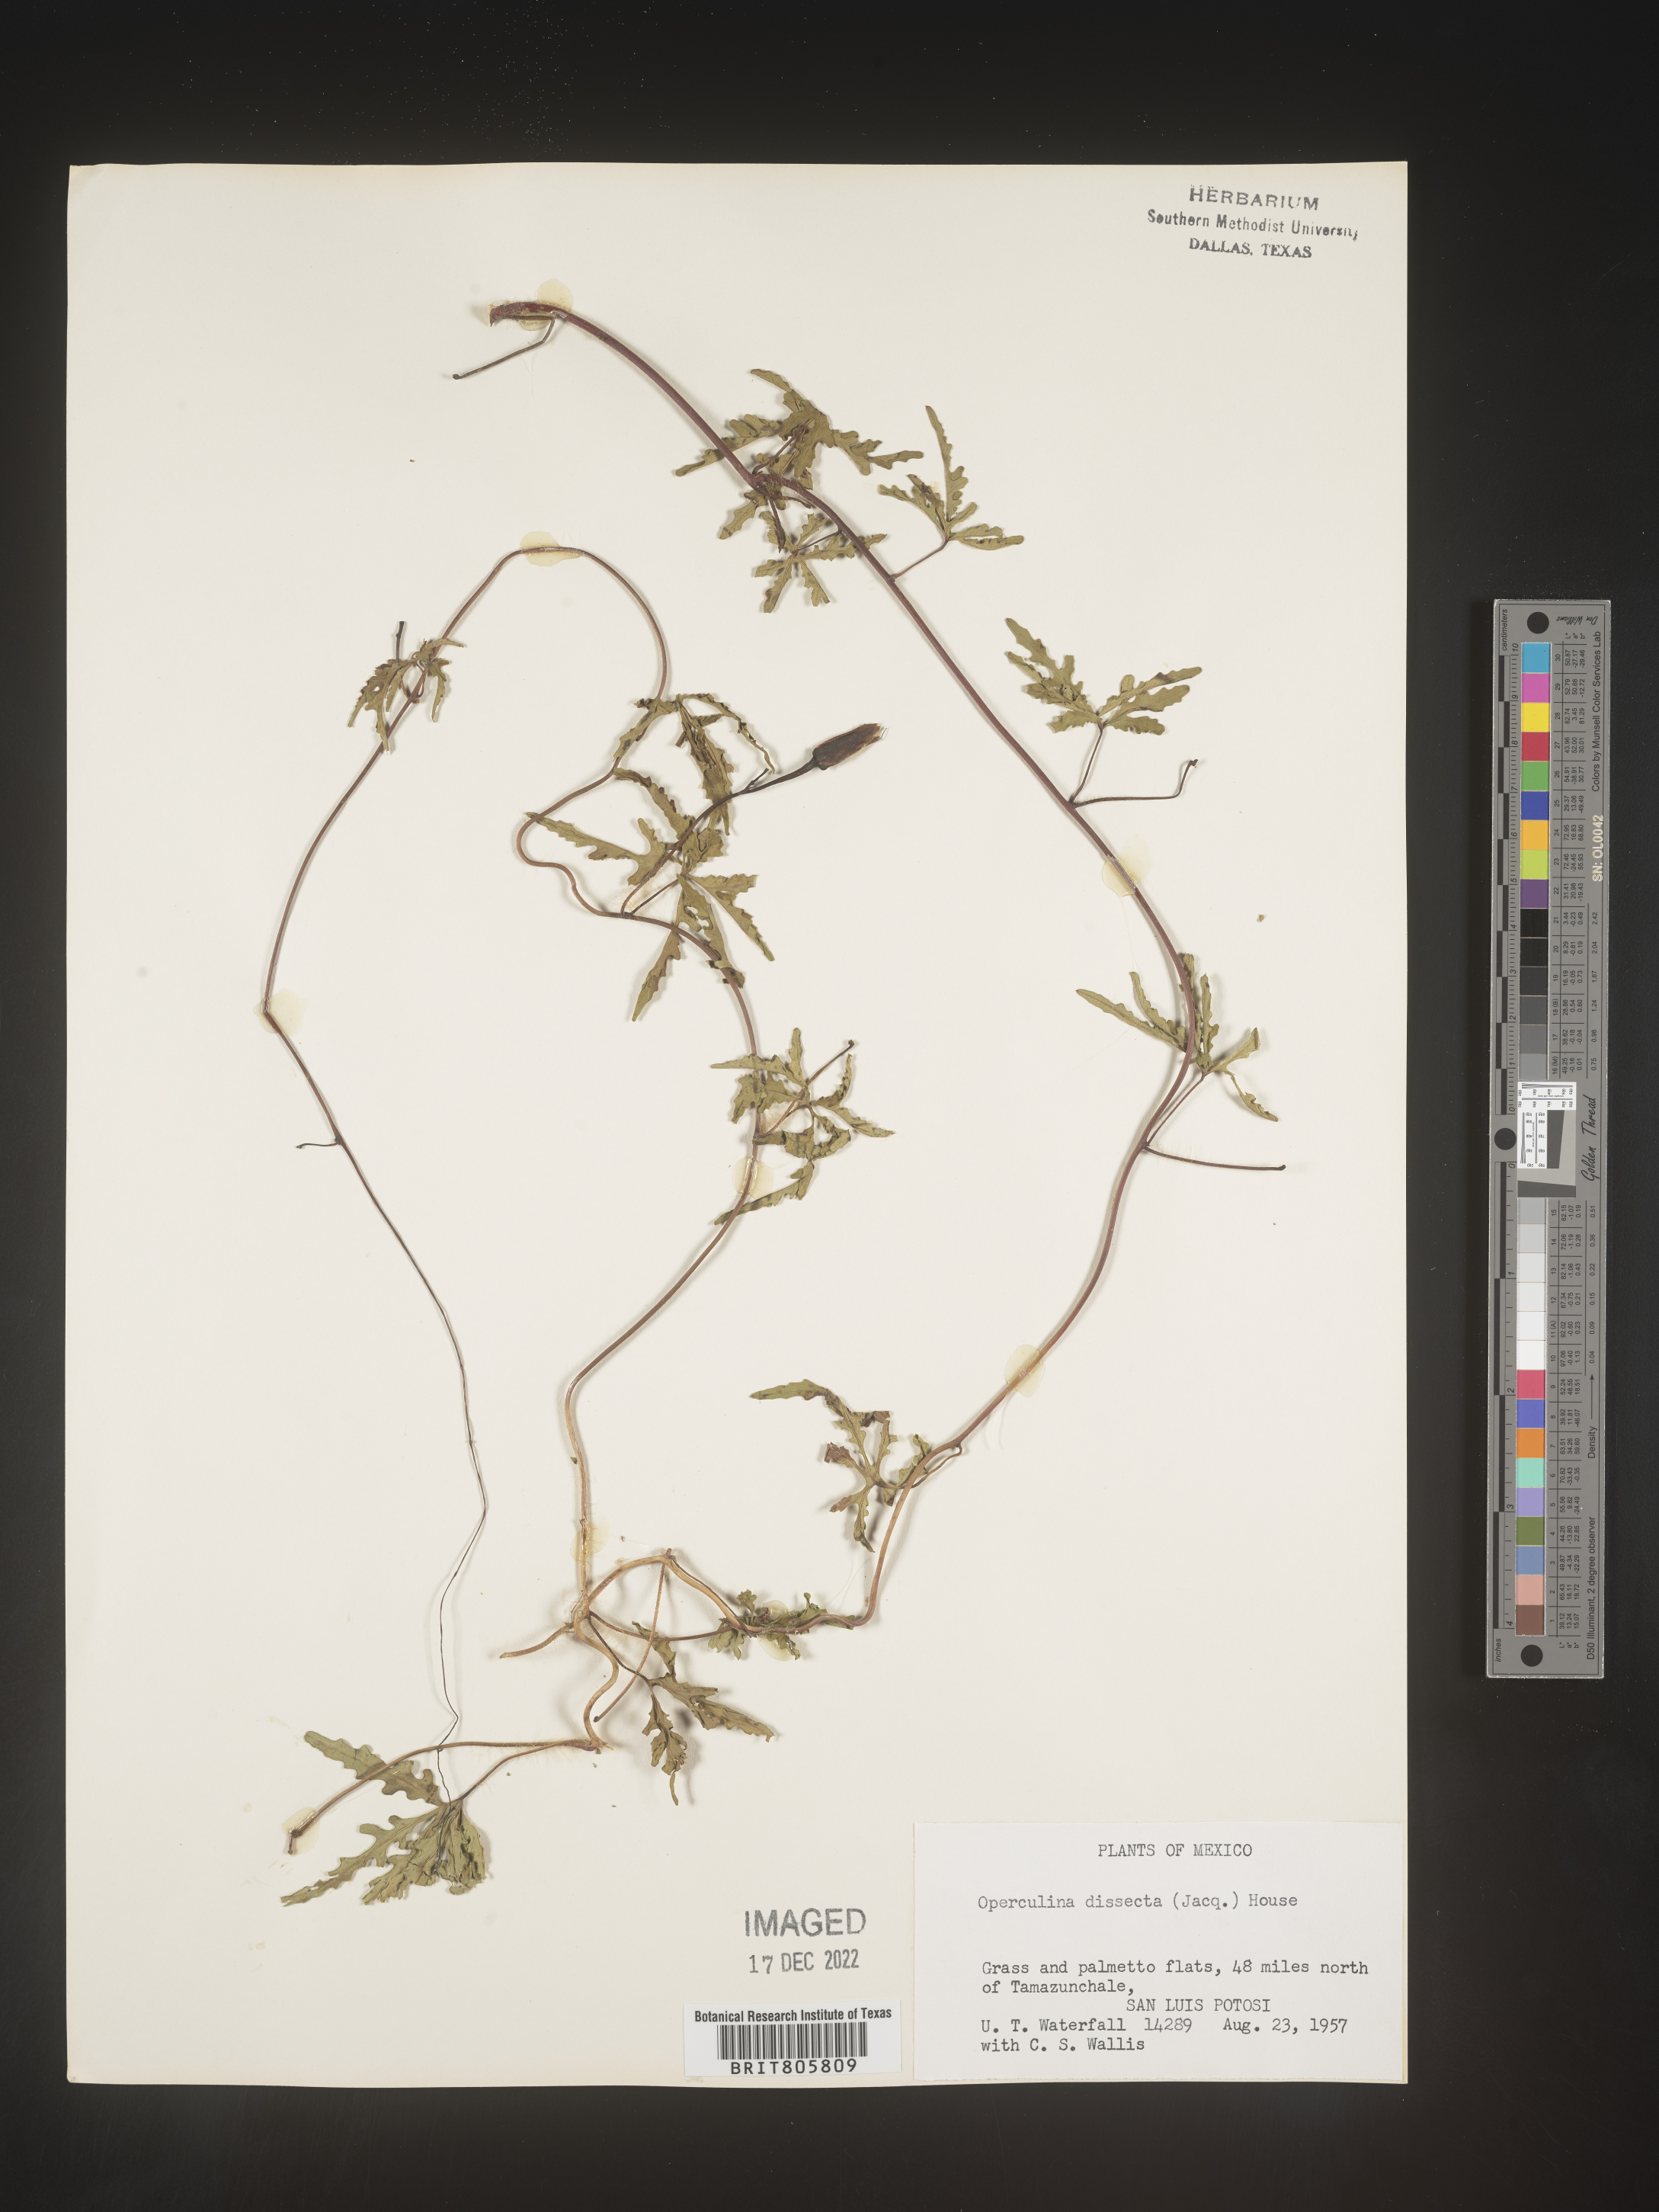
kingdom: Plantae
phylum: Tracheophyta
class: Magnoliopsida
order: Solanales
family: Convolvulaceae
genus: Merremia
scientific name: Merremia
